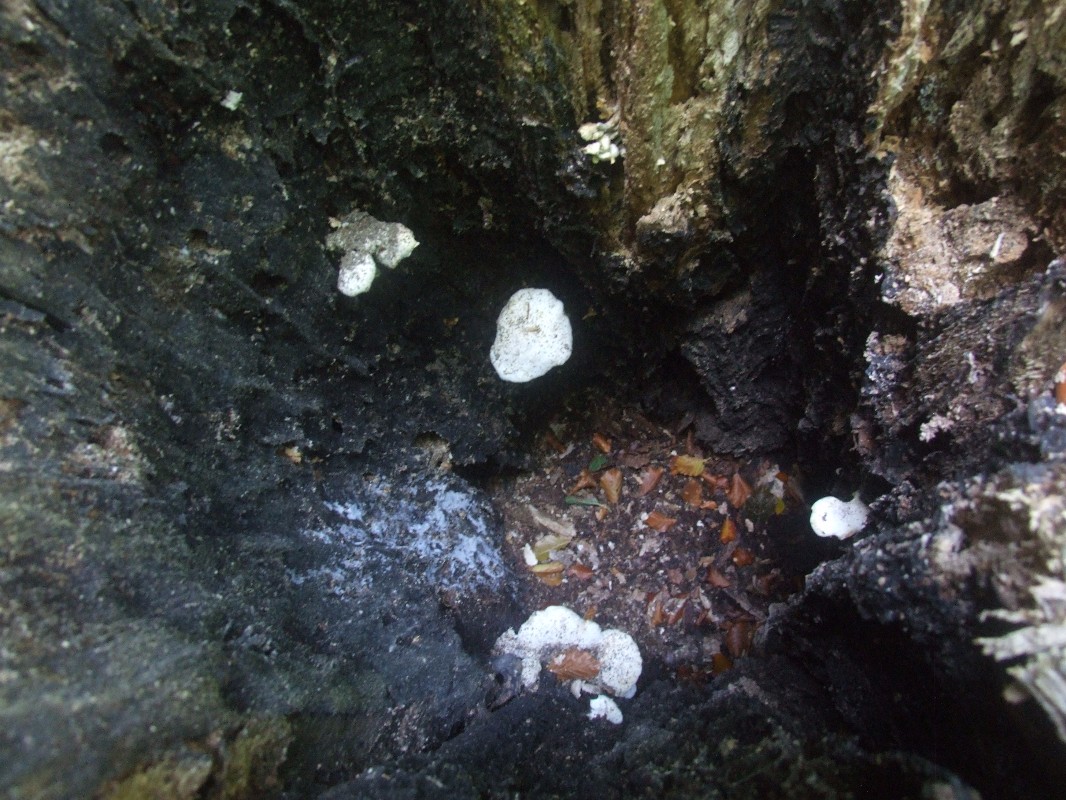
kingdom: Fungi
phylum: Basidiomycota
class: Agaricomycetes
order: Agaricales
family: Lyophyllaceae
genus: Ossicaulis
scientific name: Ossicaulis lignatilis
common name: hvidlig vedtragthat
